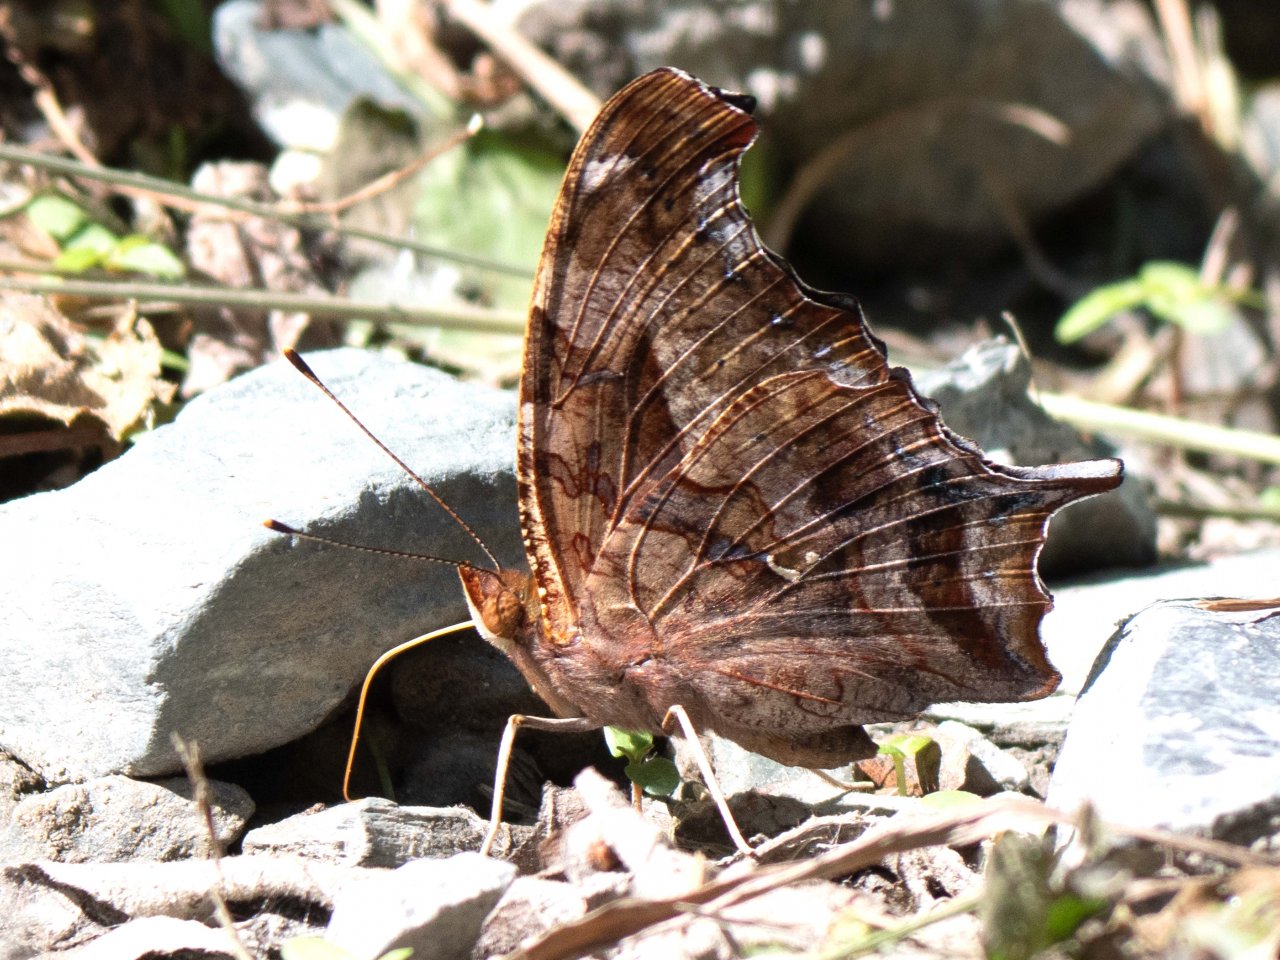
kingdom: Animalia
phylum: Arthropoda
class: Insecta
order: Lepidoptera
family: Nymphalidae
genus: Polygonia
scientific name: Polygonia interrogationis
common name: Question Mark
